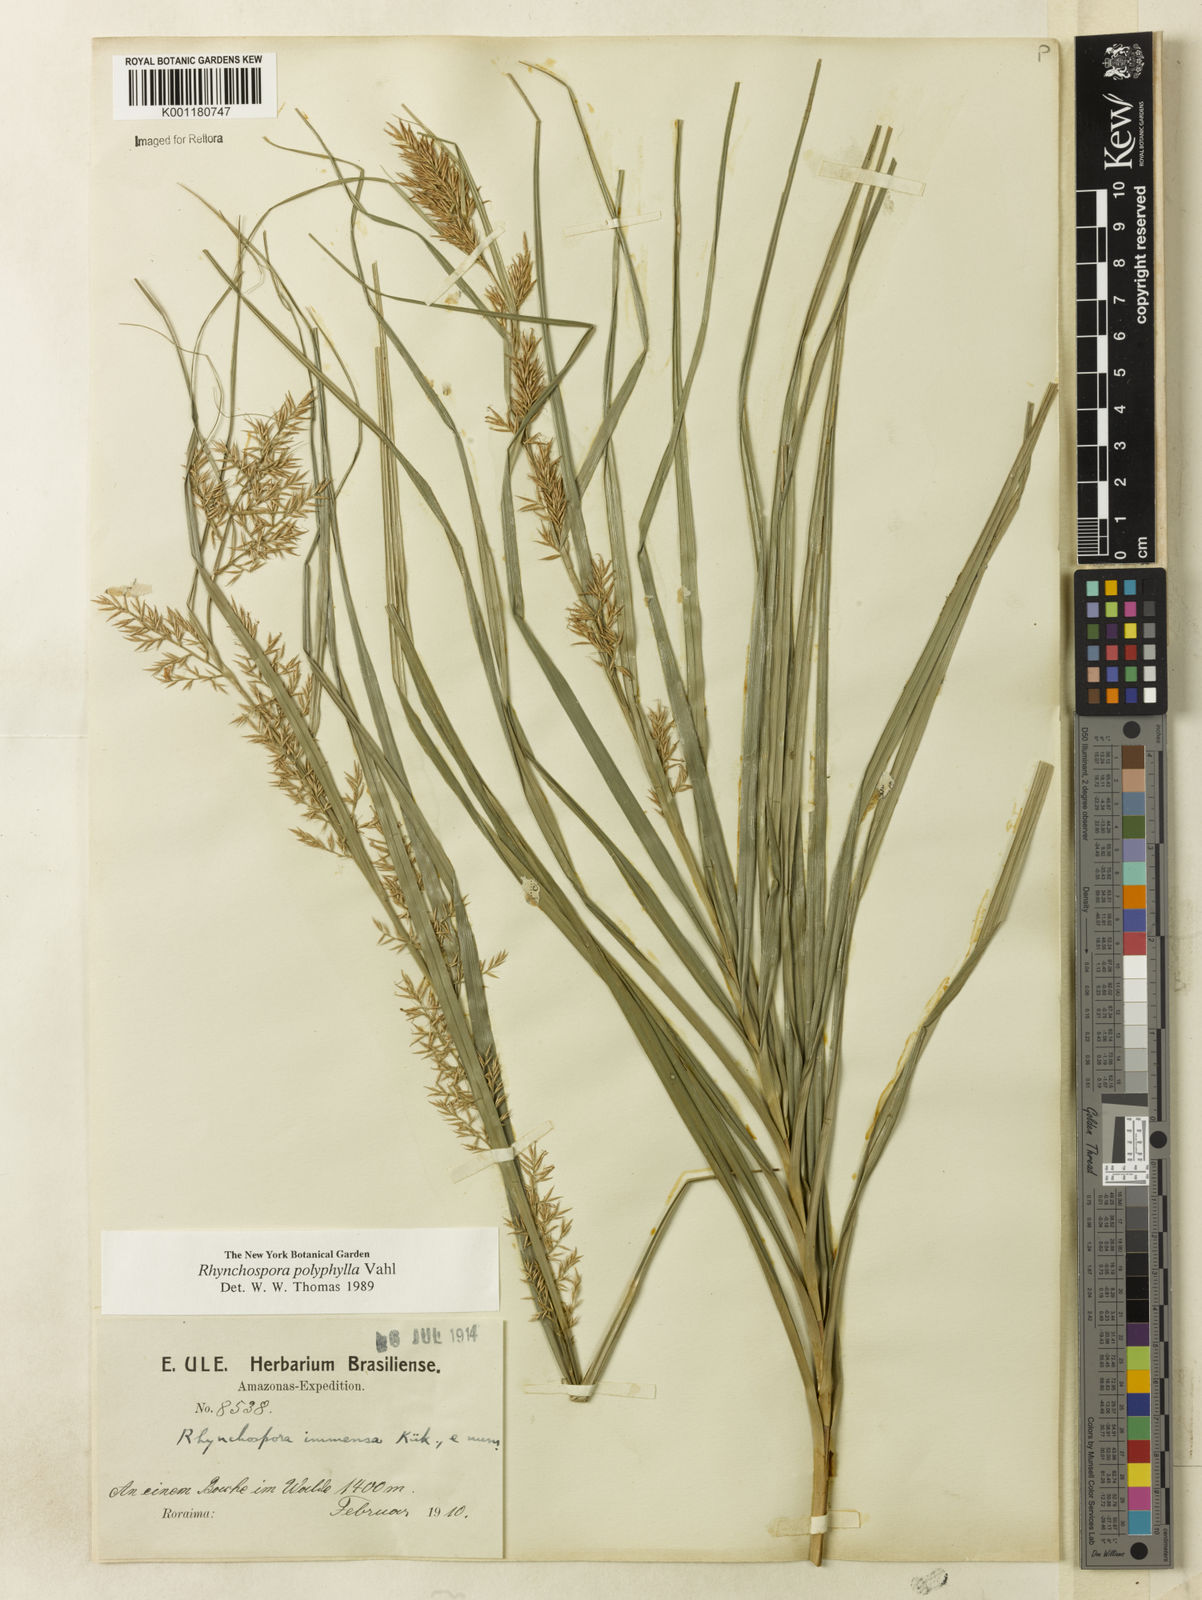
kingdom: Plantae
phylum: Tracheophyta
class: Liliopsida
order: Poales
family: Cyperaceae
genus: Rhynchospora
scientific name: Rhynchospora polyphylla
